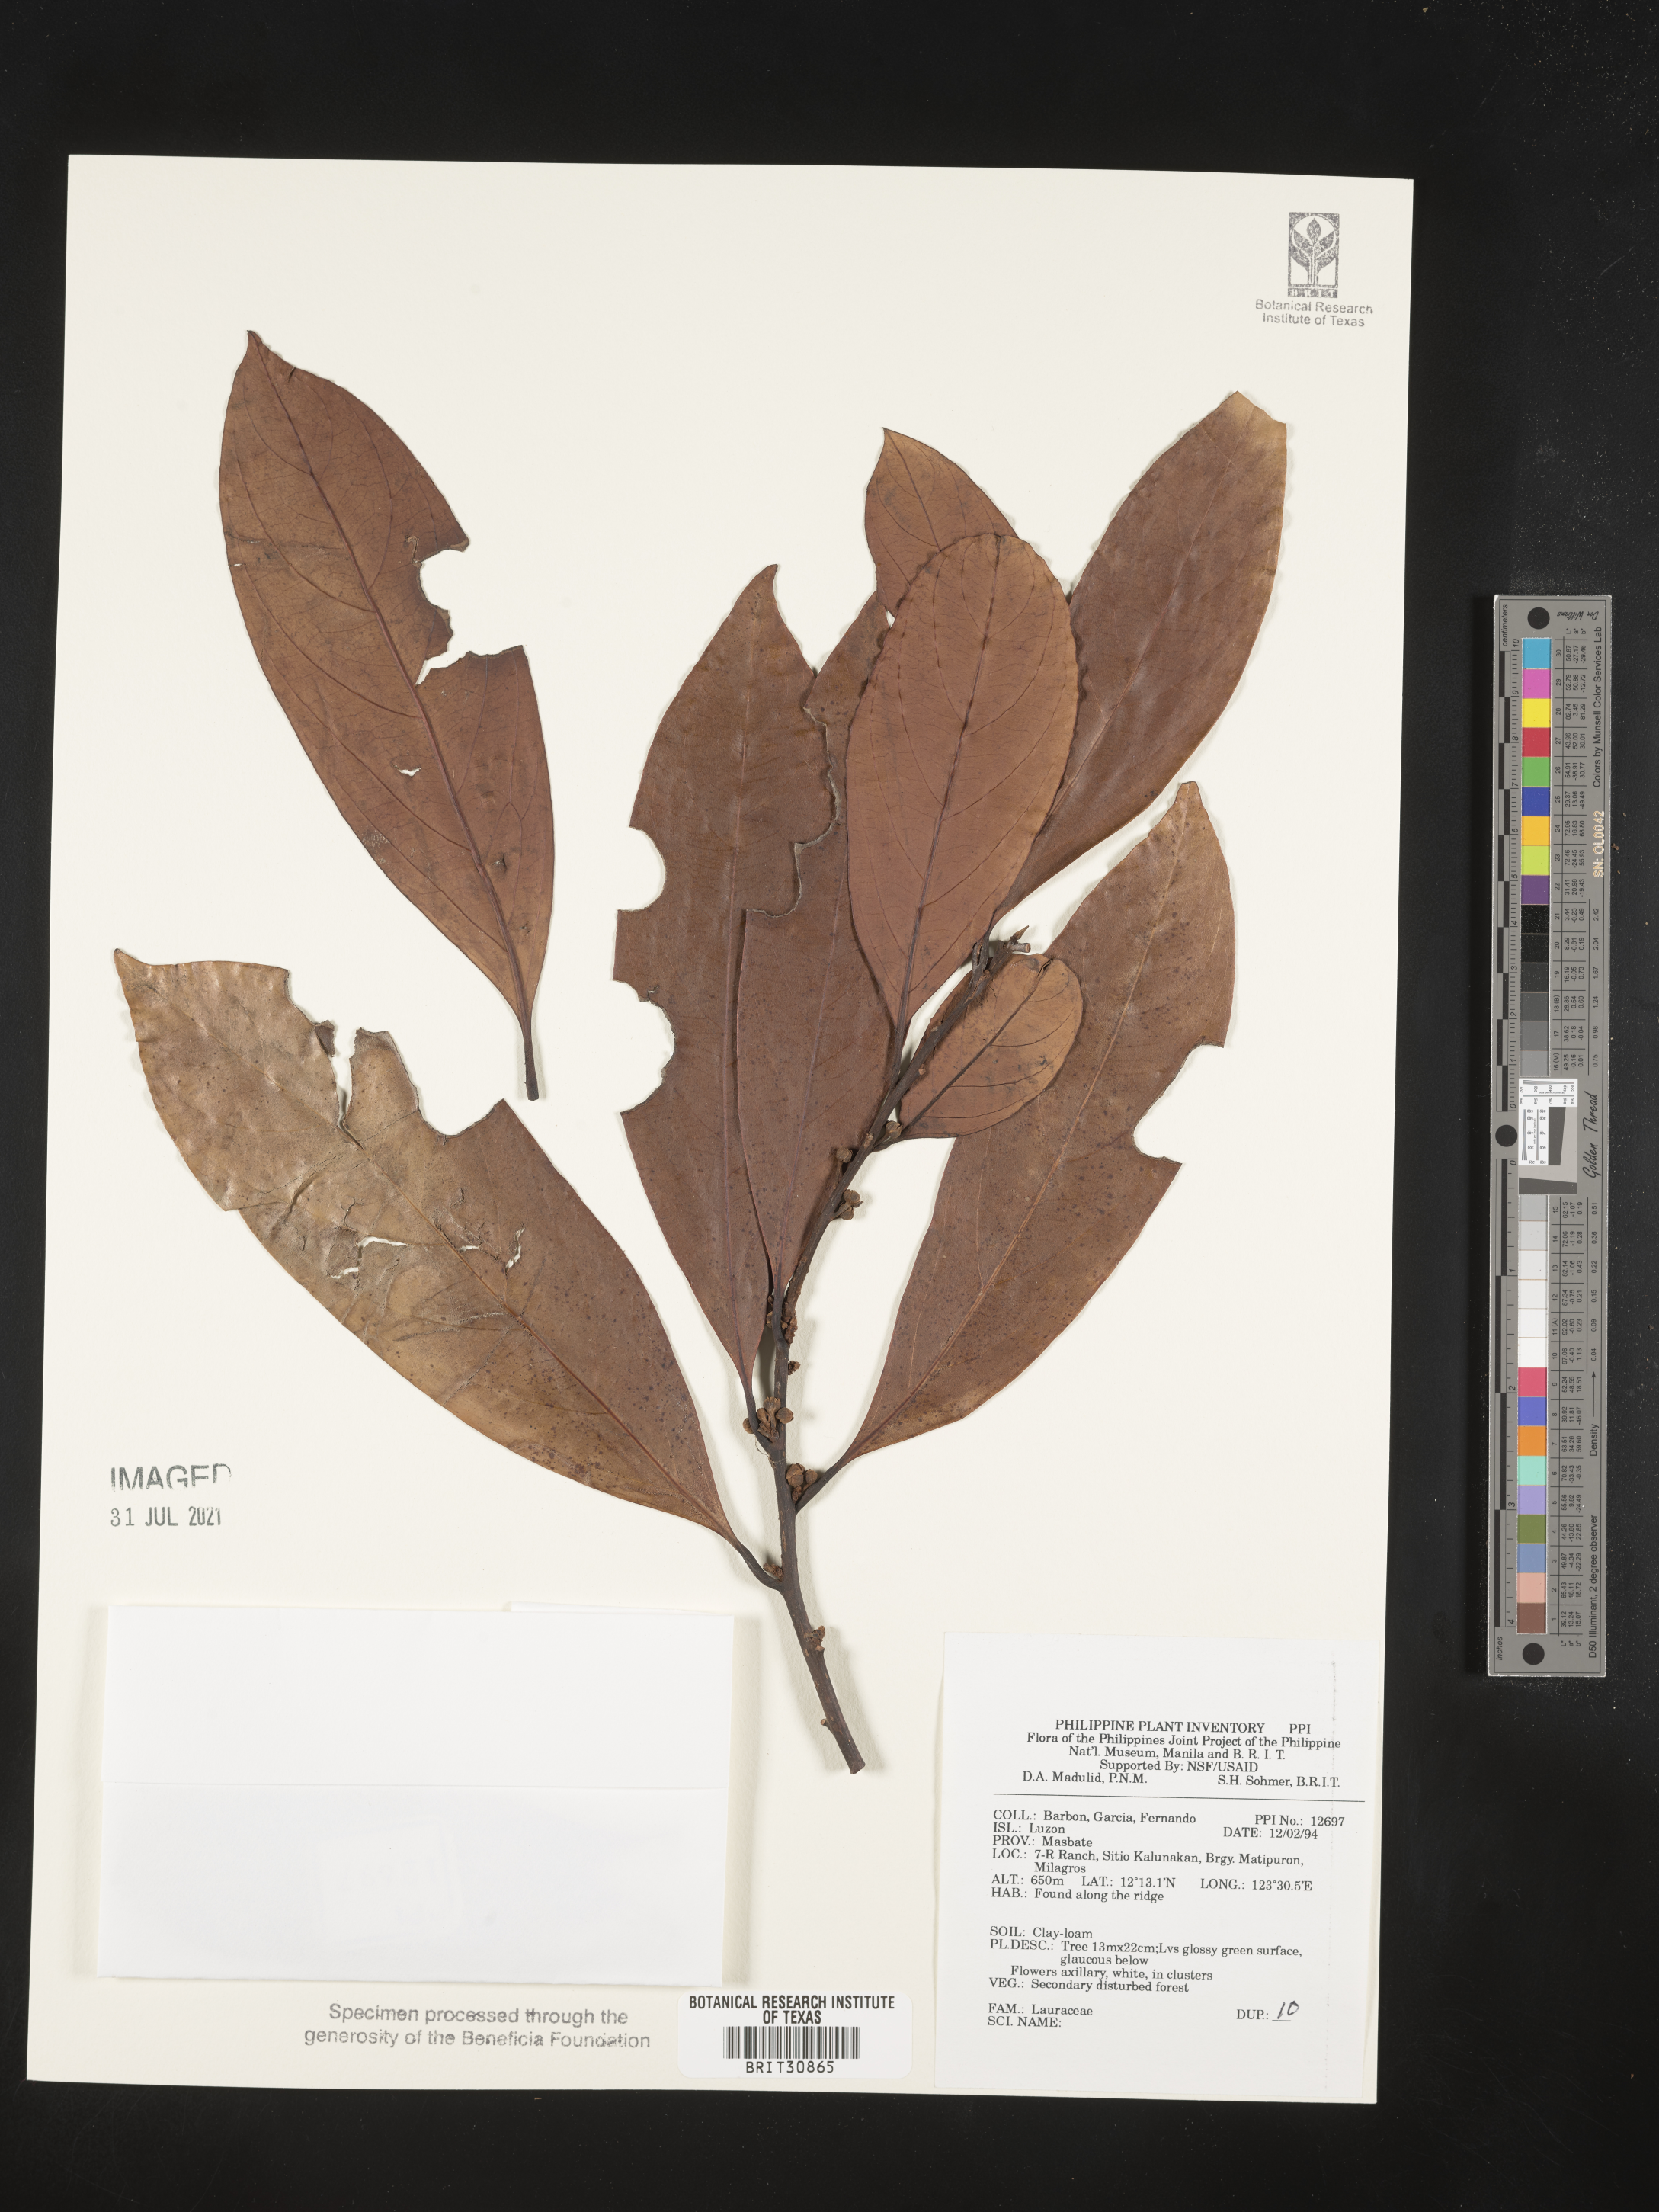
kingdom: Plantae
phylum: Tracheophyta
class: Magnoliopsida
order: Laurales
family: Lauraceae
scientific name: Lauraceae
